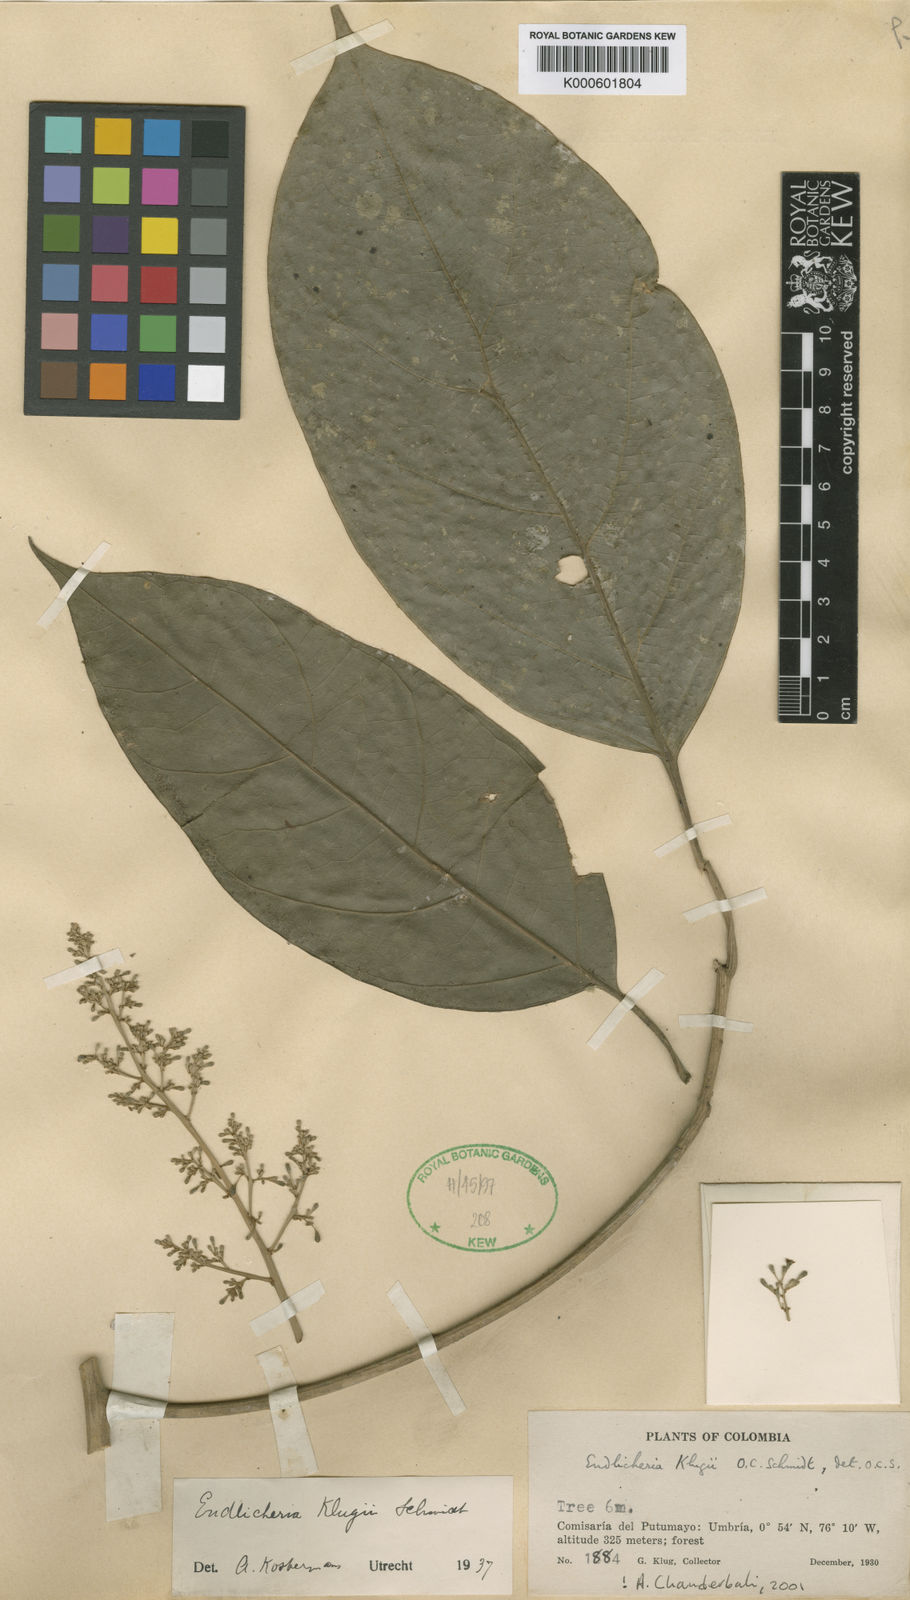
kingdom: Plantae
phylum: Tracheophyta
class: Magnoliopsida
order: Laurales
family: Lauraceae
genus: Endlicheria
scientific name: Endlicheria klugii
